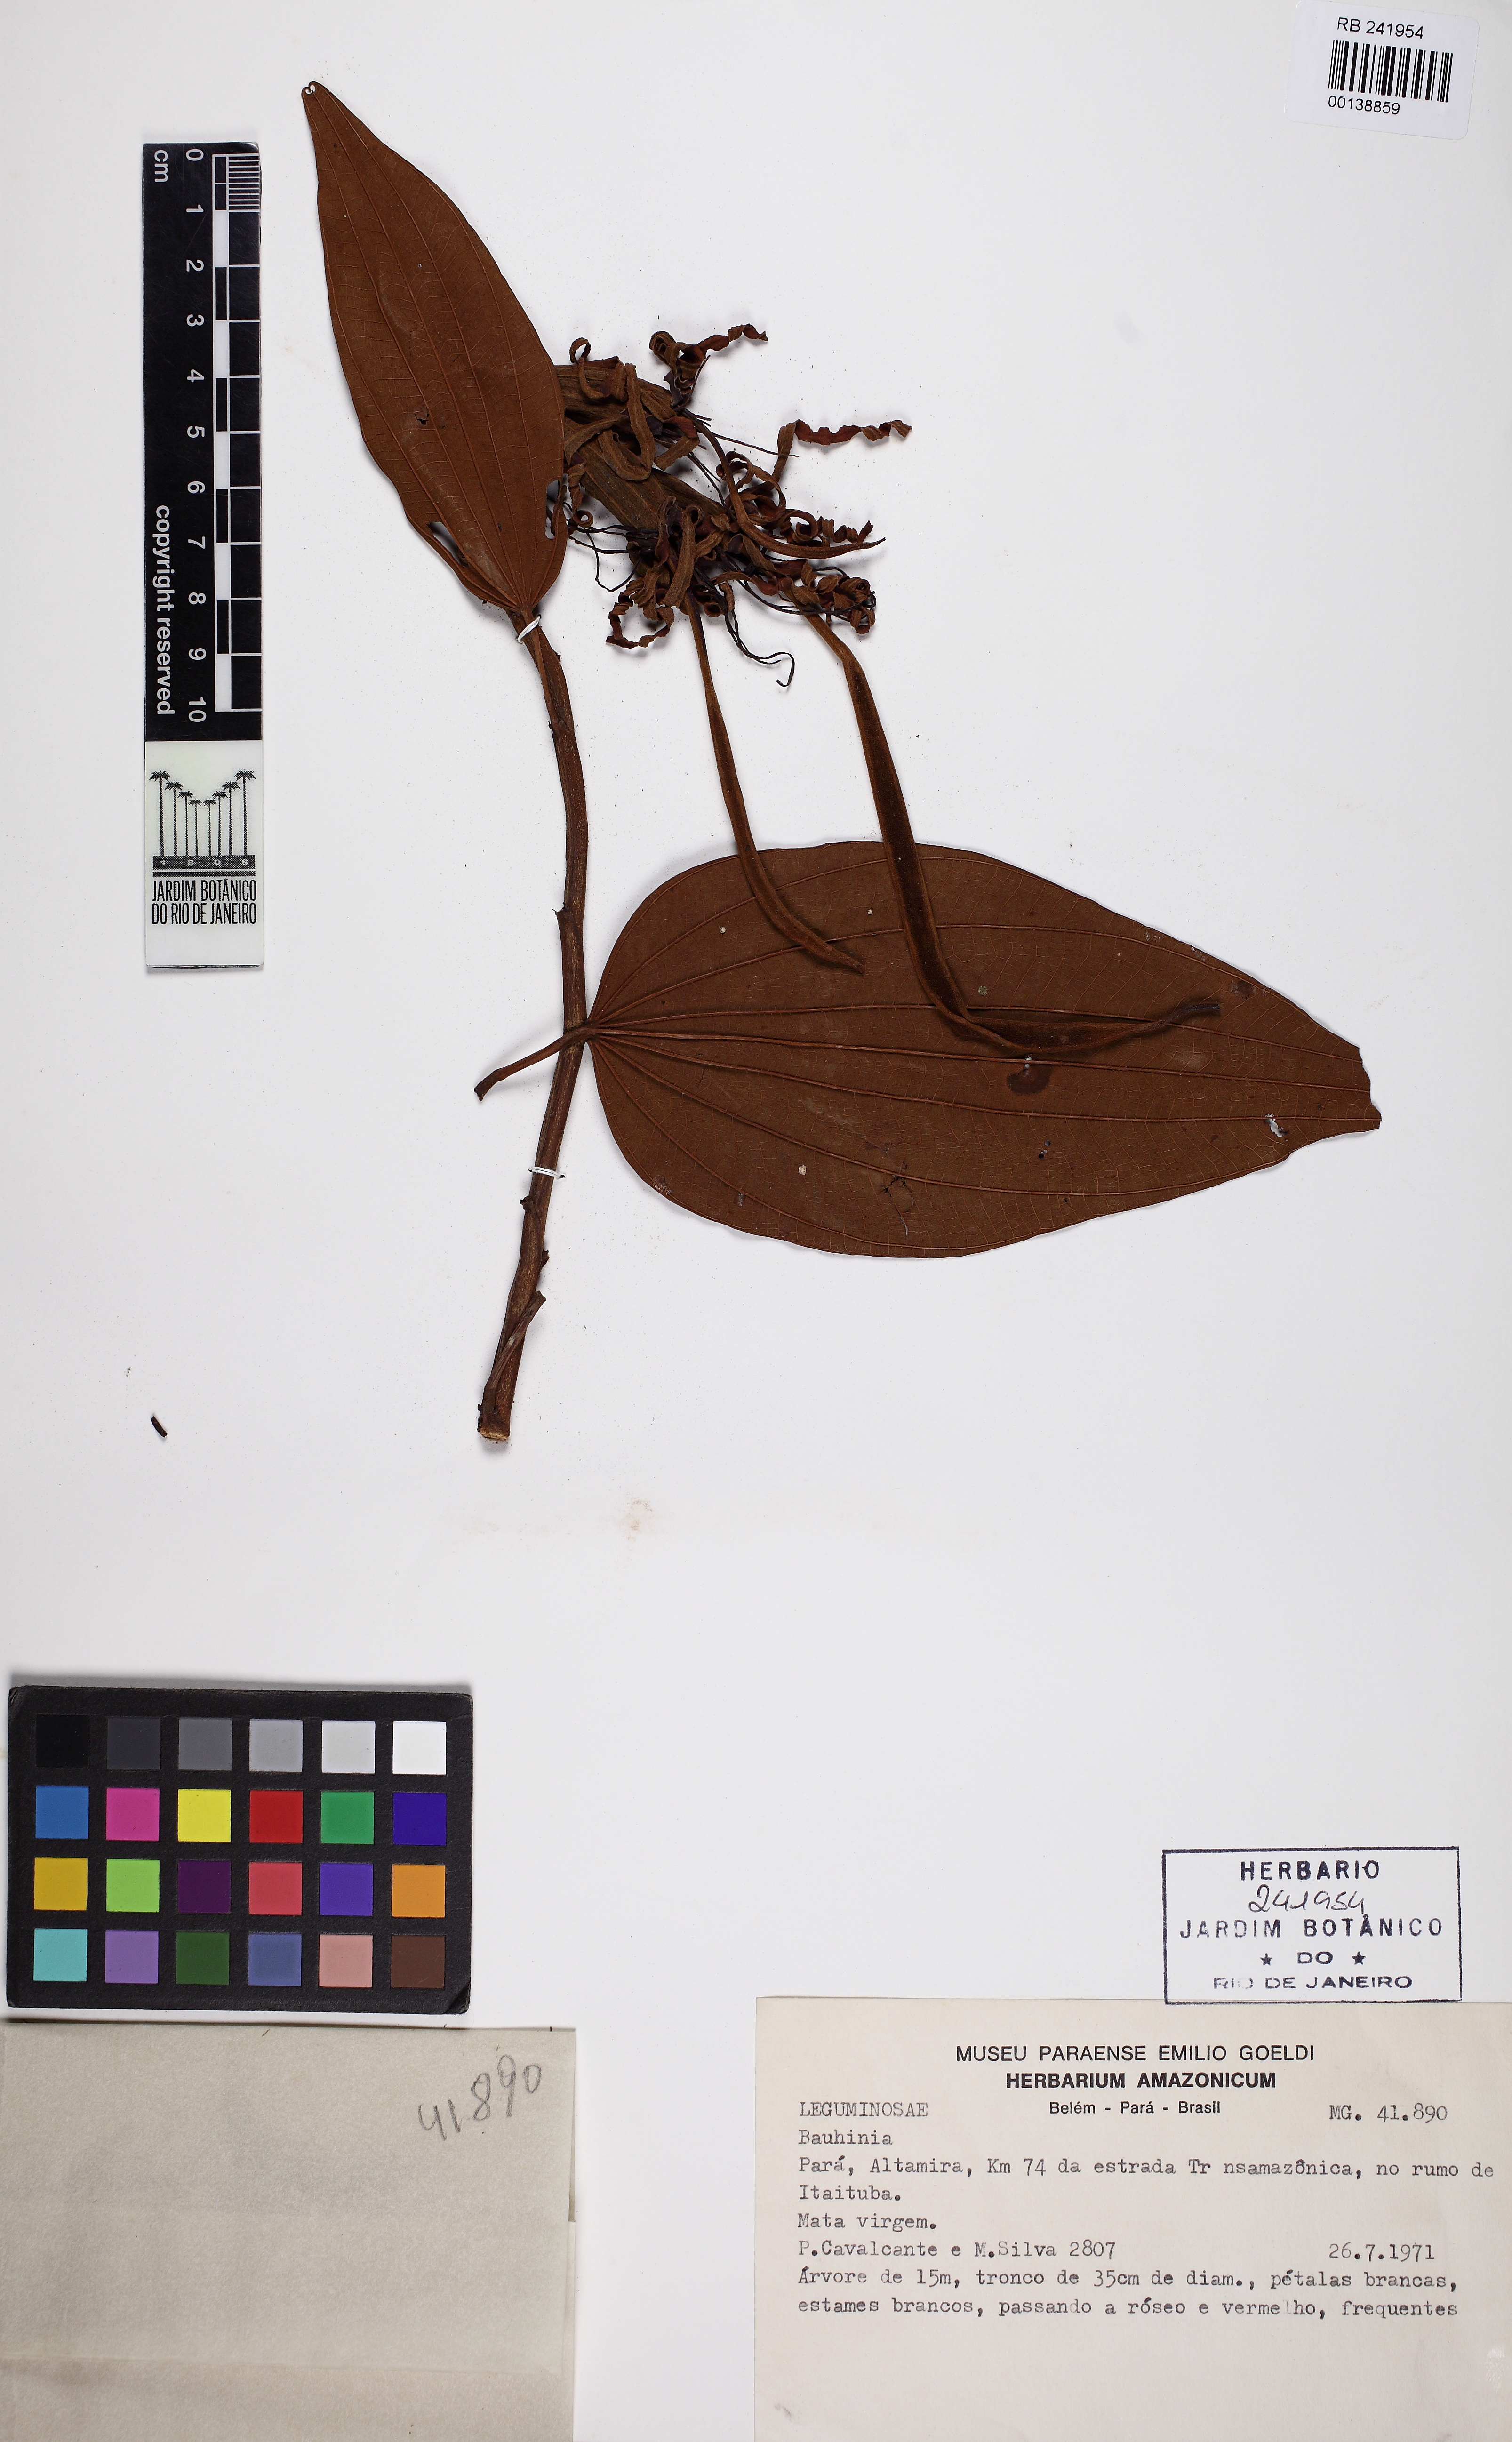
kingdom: Plantae
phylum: Tracheophyta
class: Magnoliopsida
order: Fabales
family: Fabaceae
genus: Bauhinia
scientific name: Bauhinia
